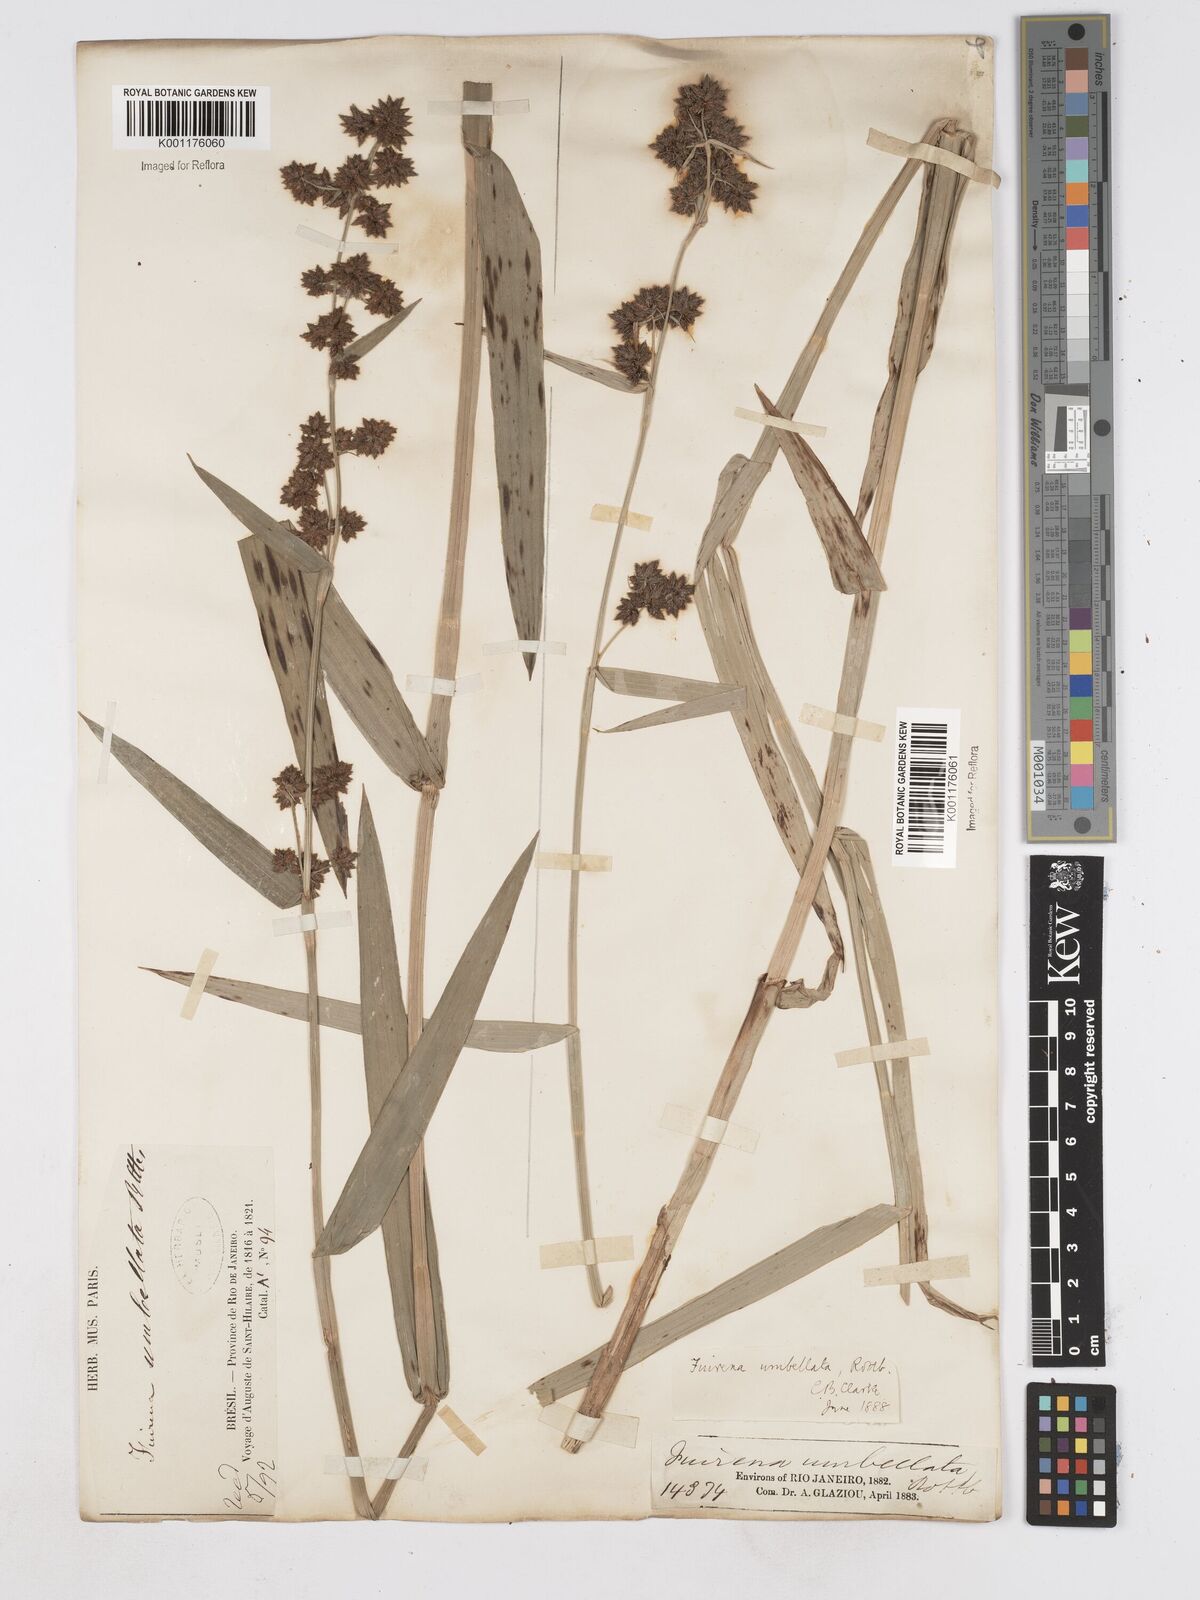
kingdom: Plantae
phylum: Tracheophyta
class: Liliopsida
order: Poales
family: Cyperaceae
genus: Fuirena
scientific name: Fuirena umbellata
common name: Yefen
